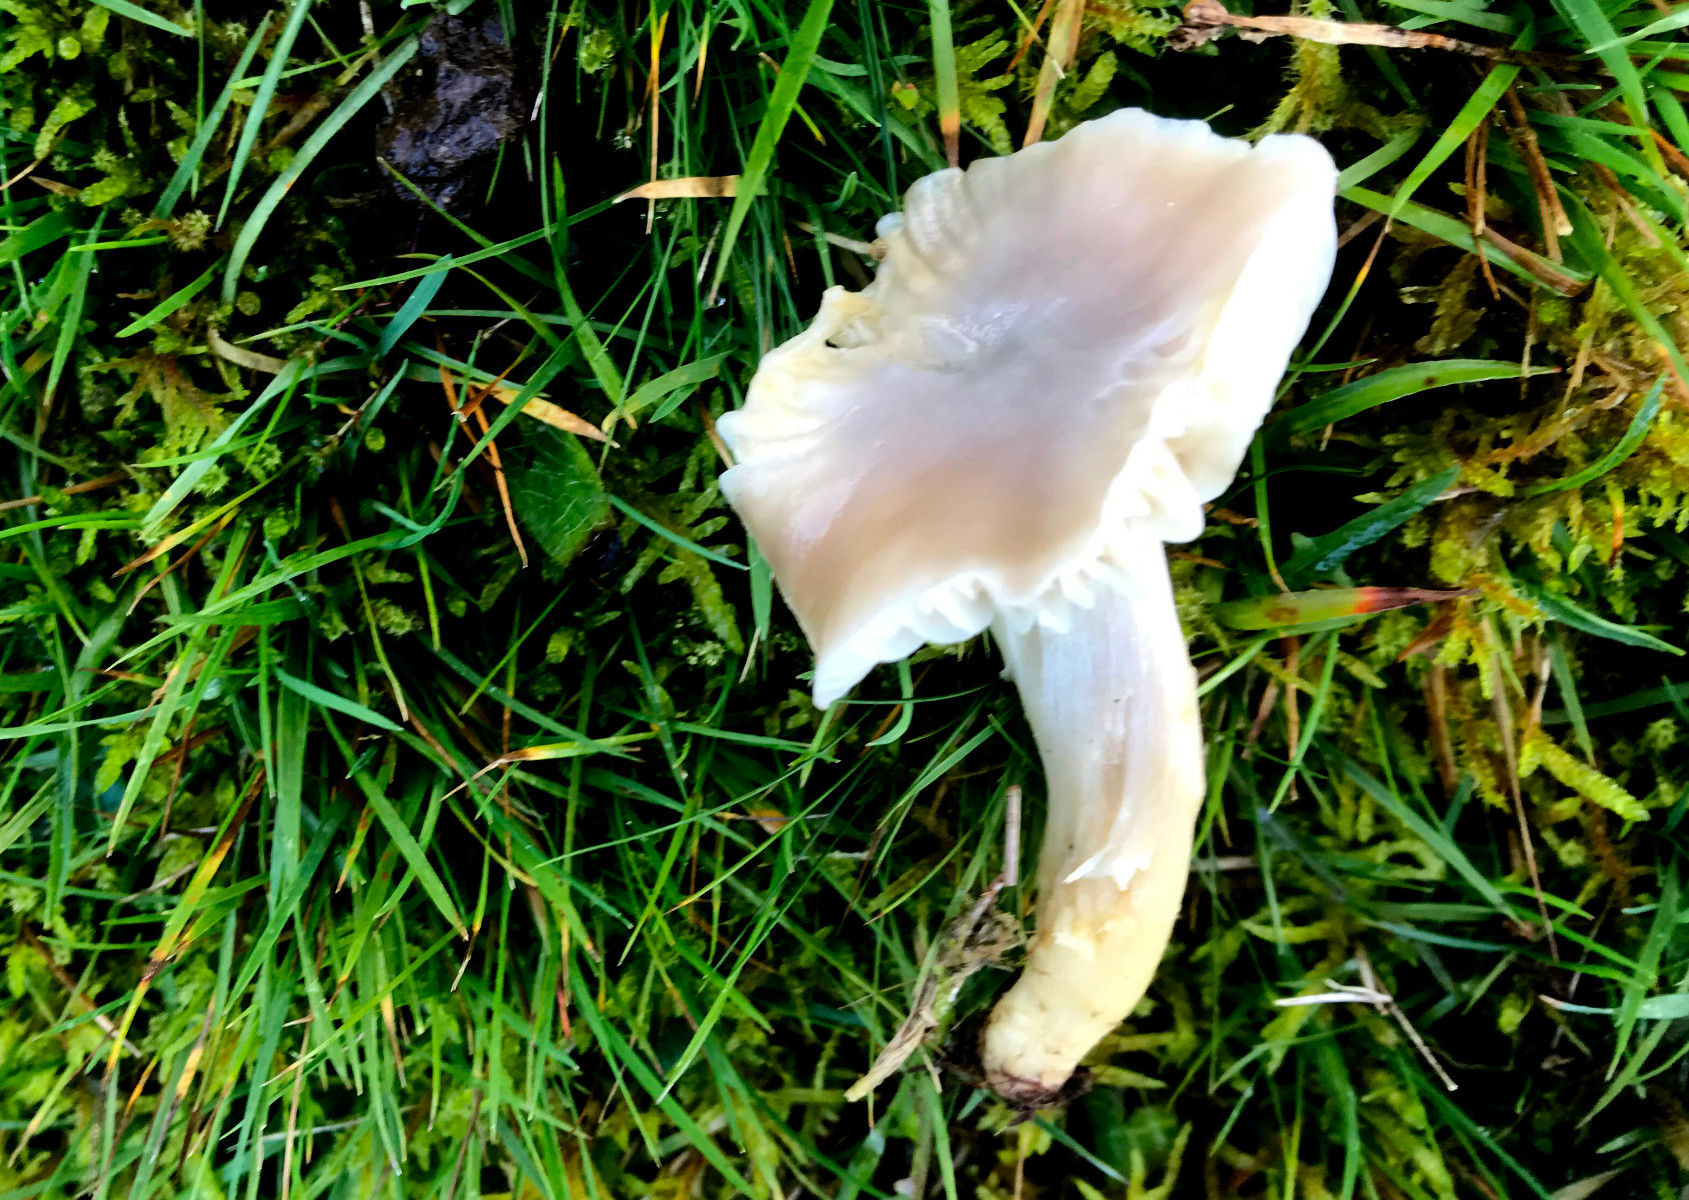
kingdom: Fungi
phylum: Basidiomycota
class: Agaricomycetes
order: Agaricales
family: Hygrophoraceae
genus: Cuphophyllus
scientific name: Cuphophyllus flavipes
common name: gulfodet vokshat
